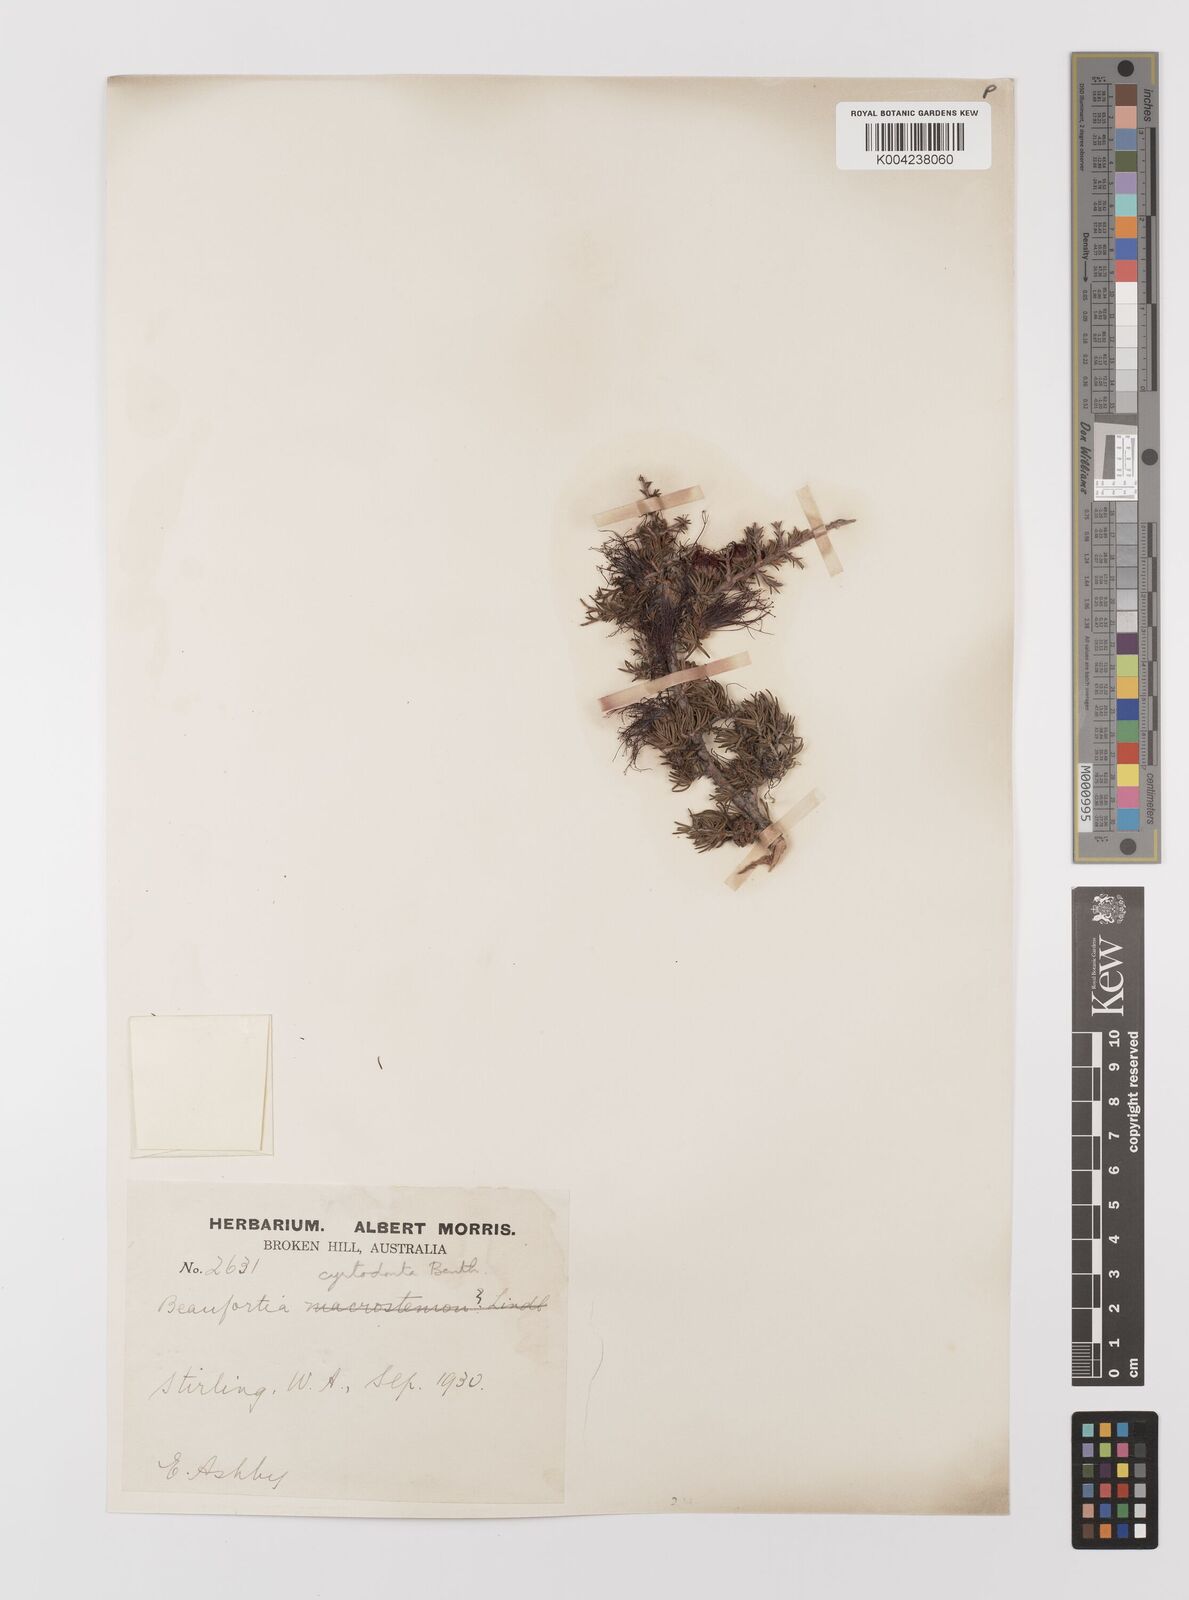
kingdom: Plantae
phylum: Tracheophyta
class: Magnoliopsida
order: Myrtales
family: Myrtaceae
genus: Melaleuca
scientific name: Melaleuca cyrtodonta
